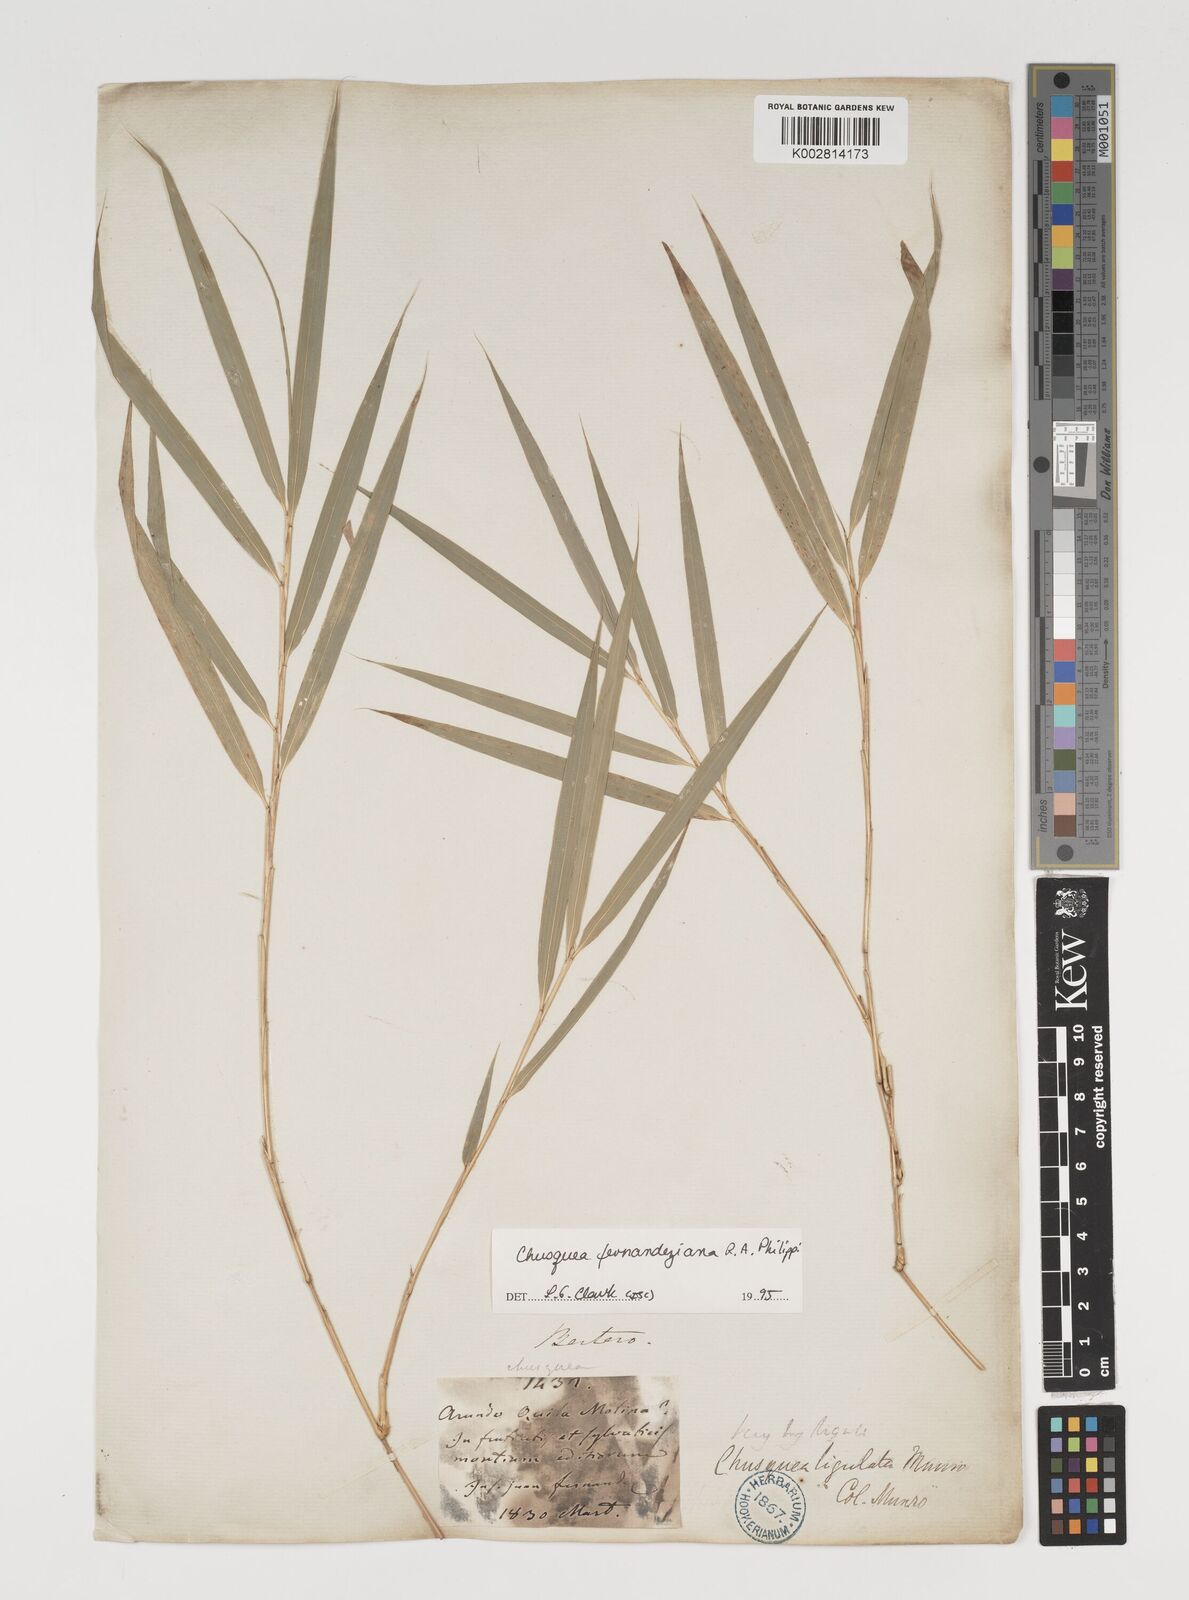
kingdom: Plantae
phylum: Tracheophyta
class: Liliopsida
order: Poales
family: Poaceae
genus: Chusquea
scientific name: Chusquea ligulata
